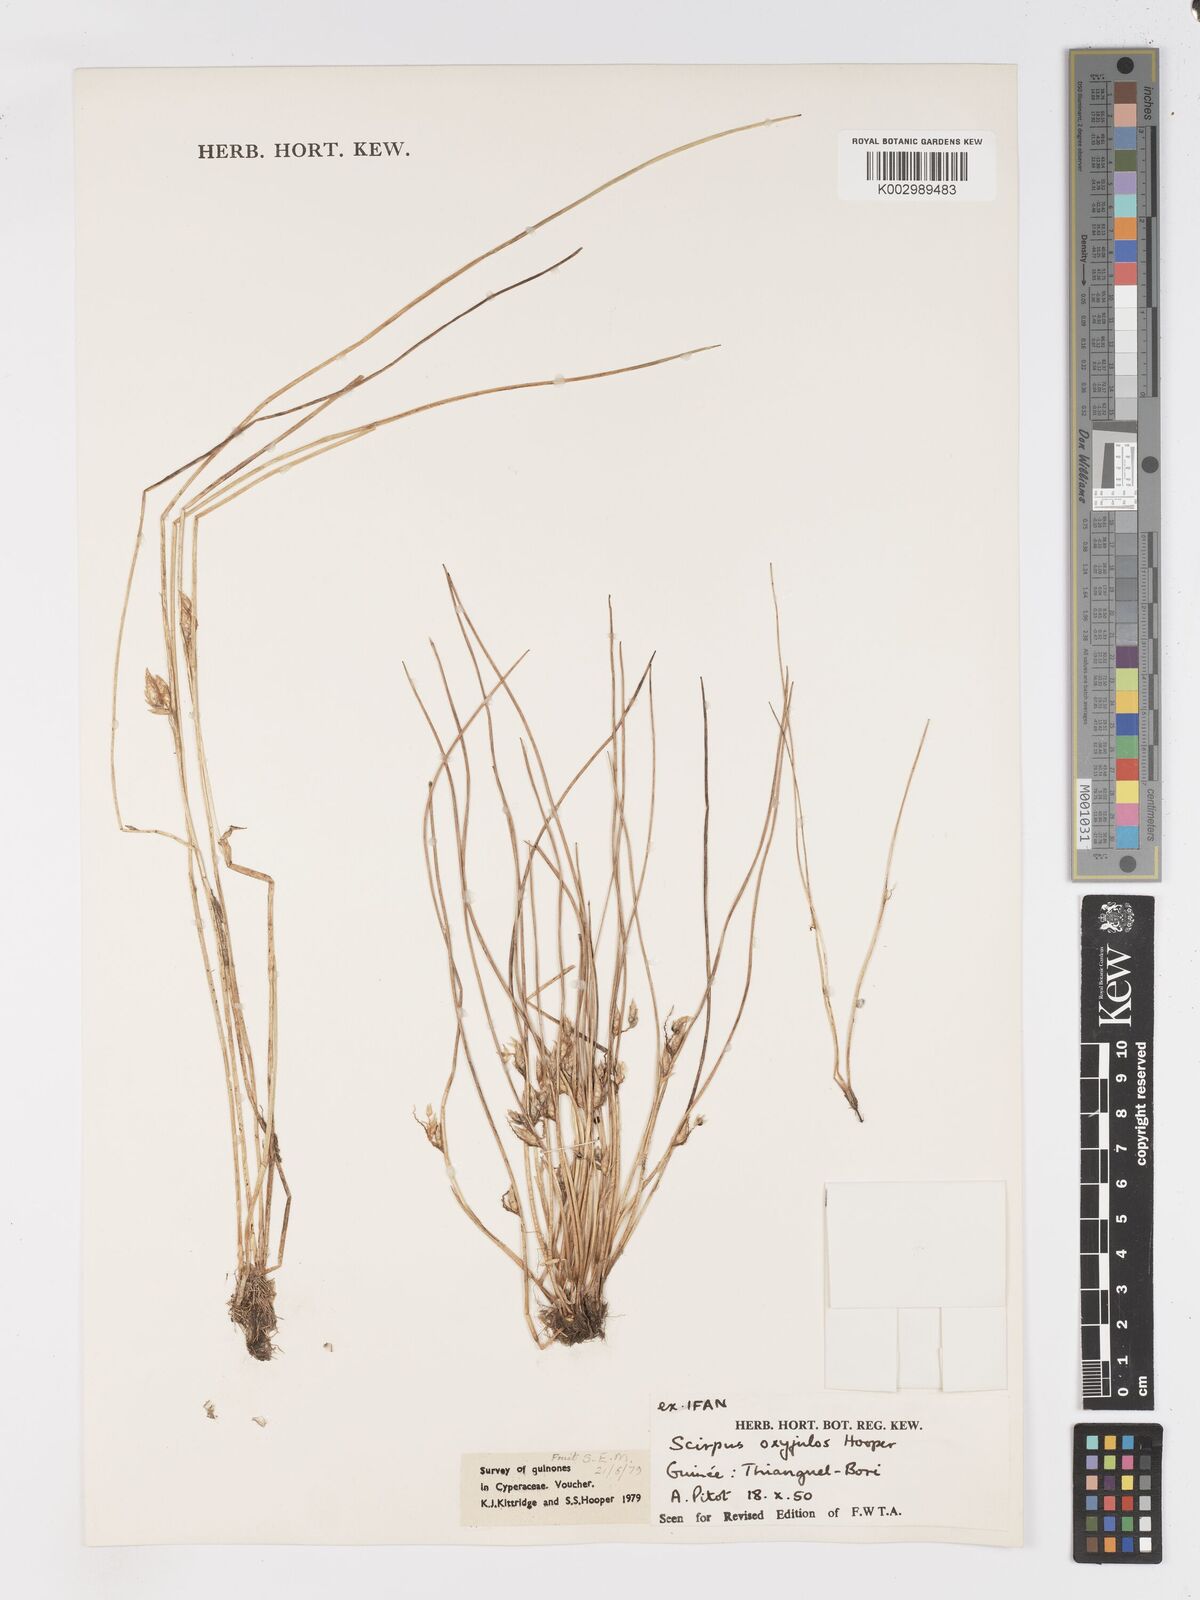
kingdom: Plantae
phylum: Tracheophyta
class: Liliopsida
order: Poales
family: Cyperaceae
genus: Schoenoplectiella
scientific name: Schoenoplectiella oxyjulos
